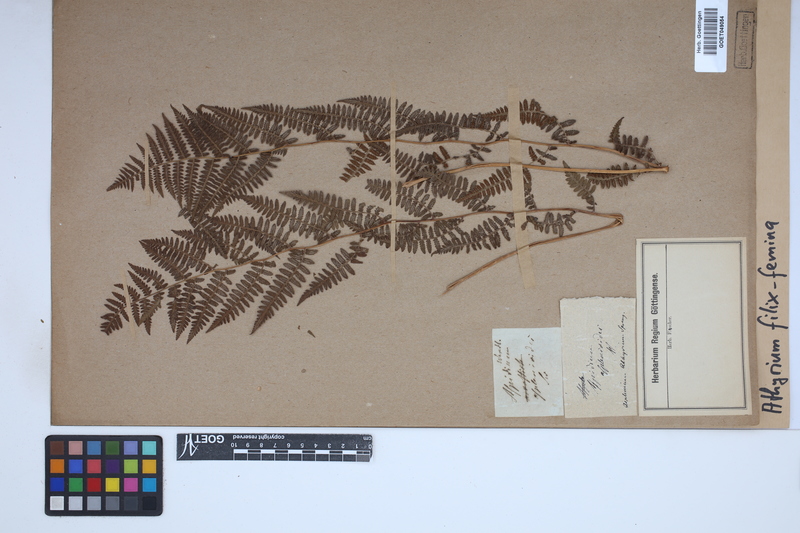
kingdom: Plantae
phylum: Tracheophyta
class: Polypodiopsida
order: Polypodiales
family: Athyriaceae
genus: Athyrium
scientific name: Athyrium filix-femina
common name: Lady fern
